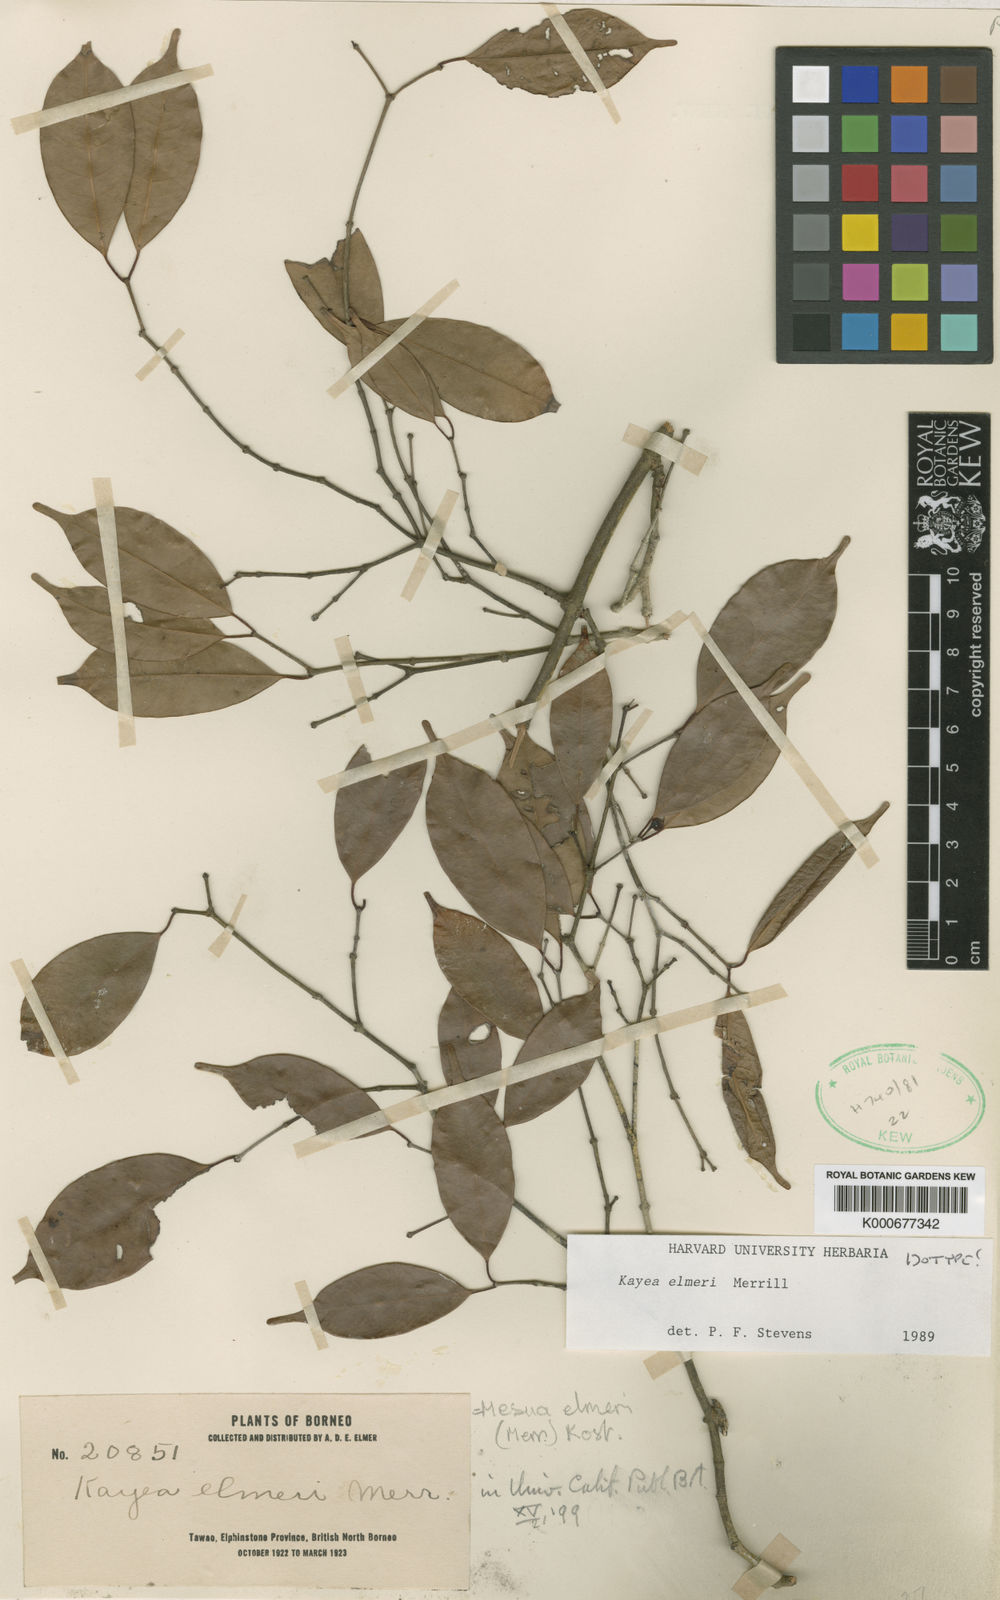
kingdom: Plantae
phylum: Tracheophyta
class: Magnoliopsida
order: Malpighiales
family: Calophyllaceae
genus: Kayea
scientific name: Kayea elmeri
